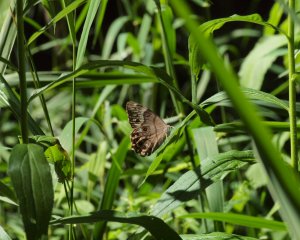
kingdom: Animalia
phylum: Arthropoda
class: Insecta
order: Lepidoptera
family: Nymphalidae
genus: Lethe
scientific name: Lethe anthedon
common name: Northern Pearly-Eye
